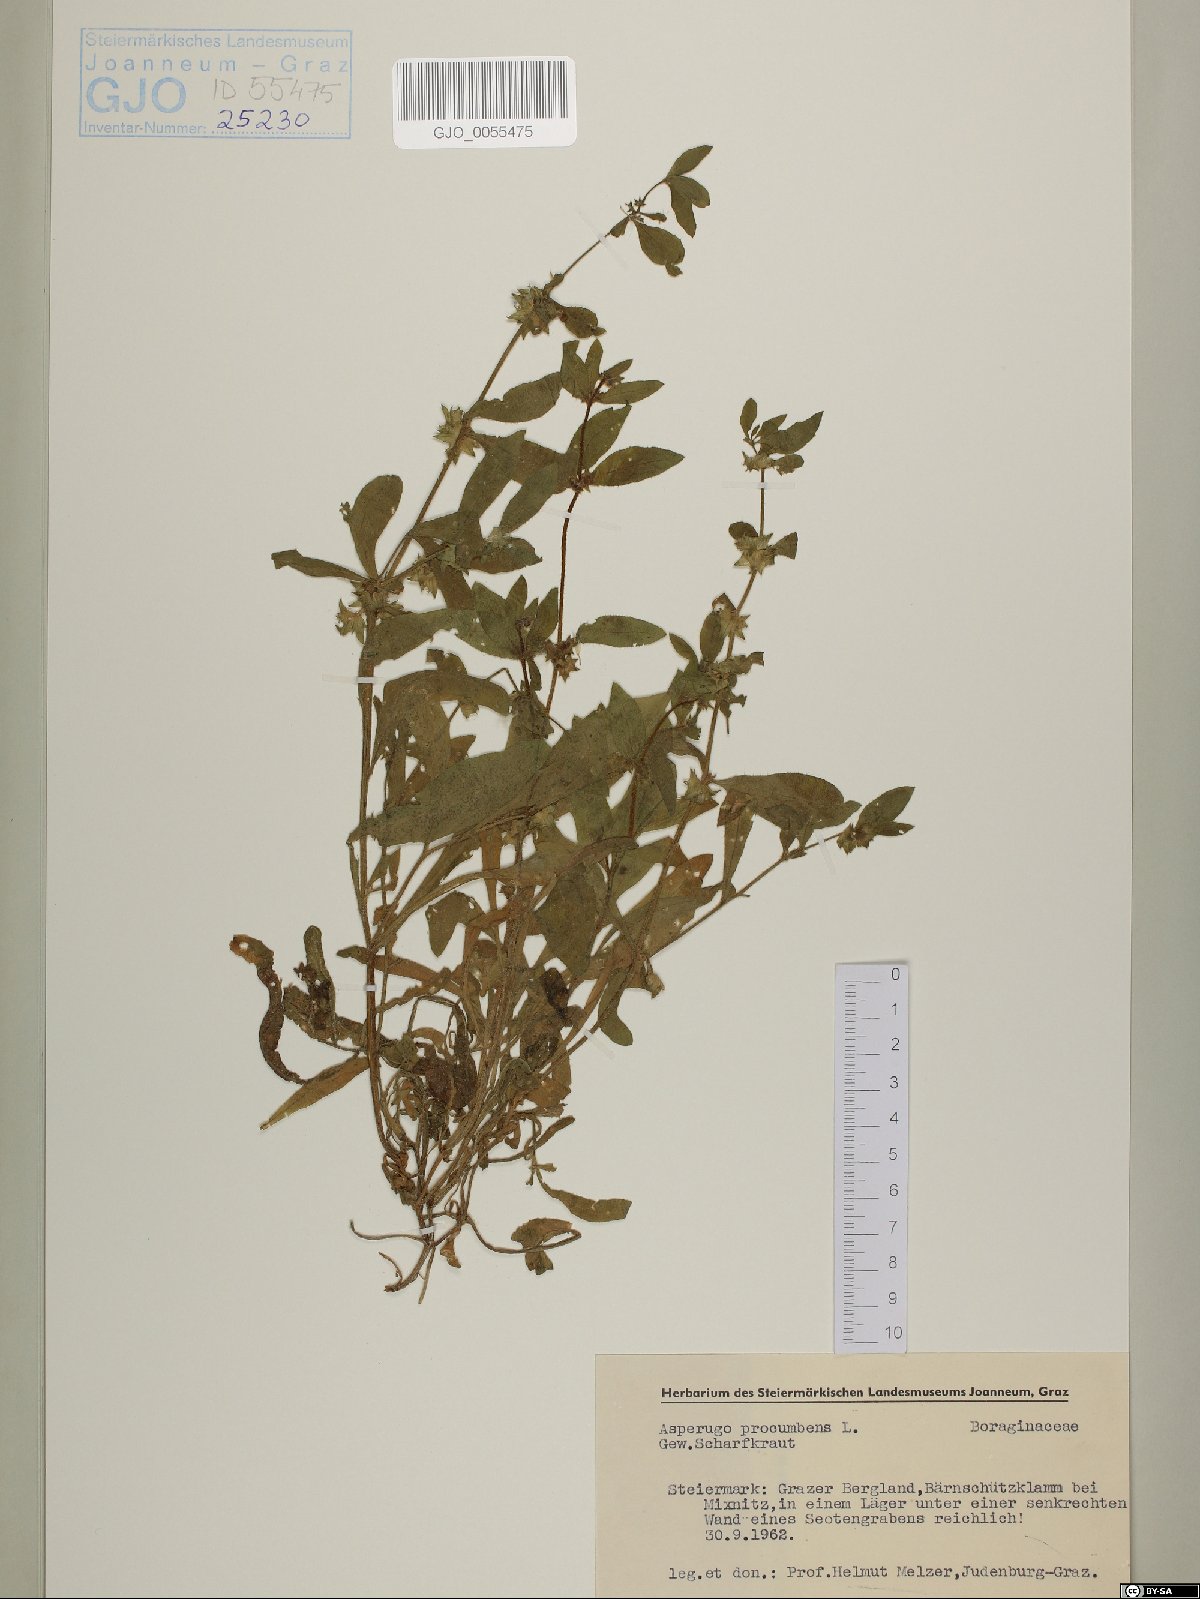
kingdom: Plantae
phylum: Tracheophyta
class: Magnoliopsida
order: Boraginales
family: Boraginaceae
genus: Asperugo
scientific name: Asperugo procumbens
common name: Madwort
